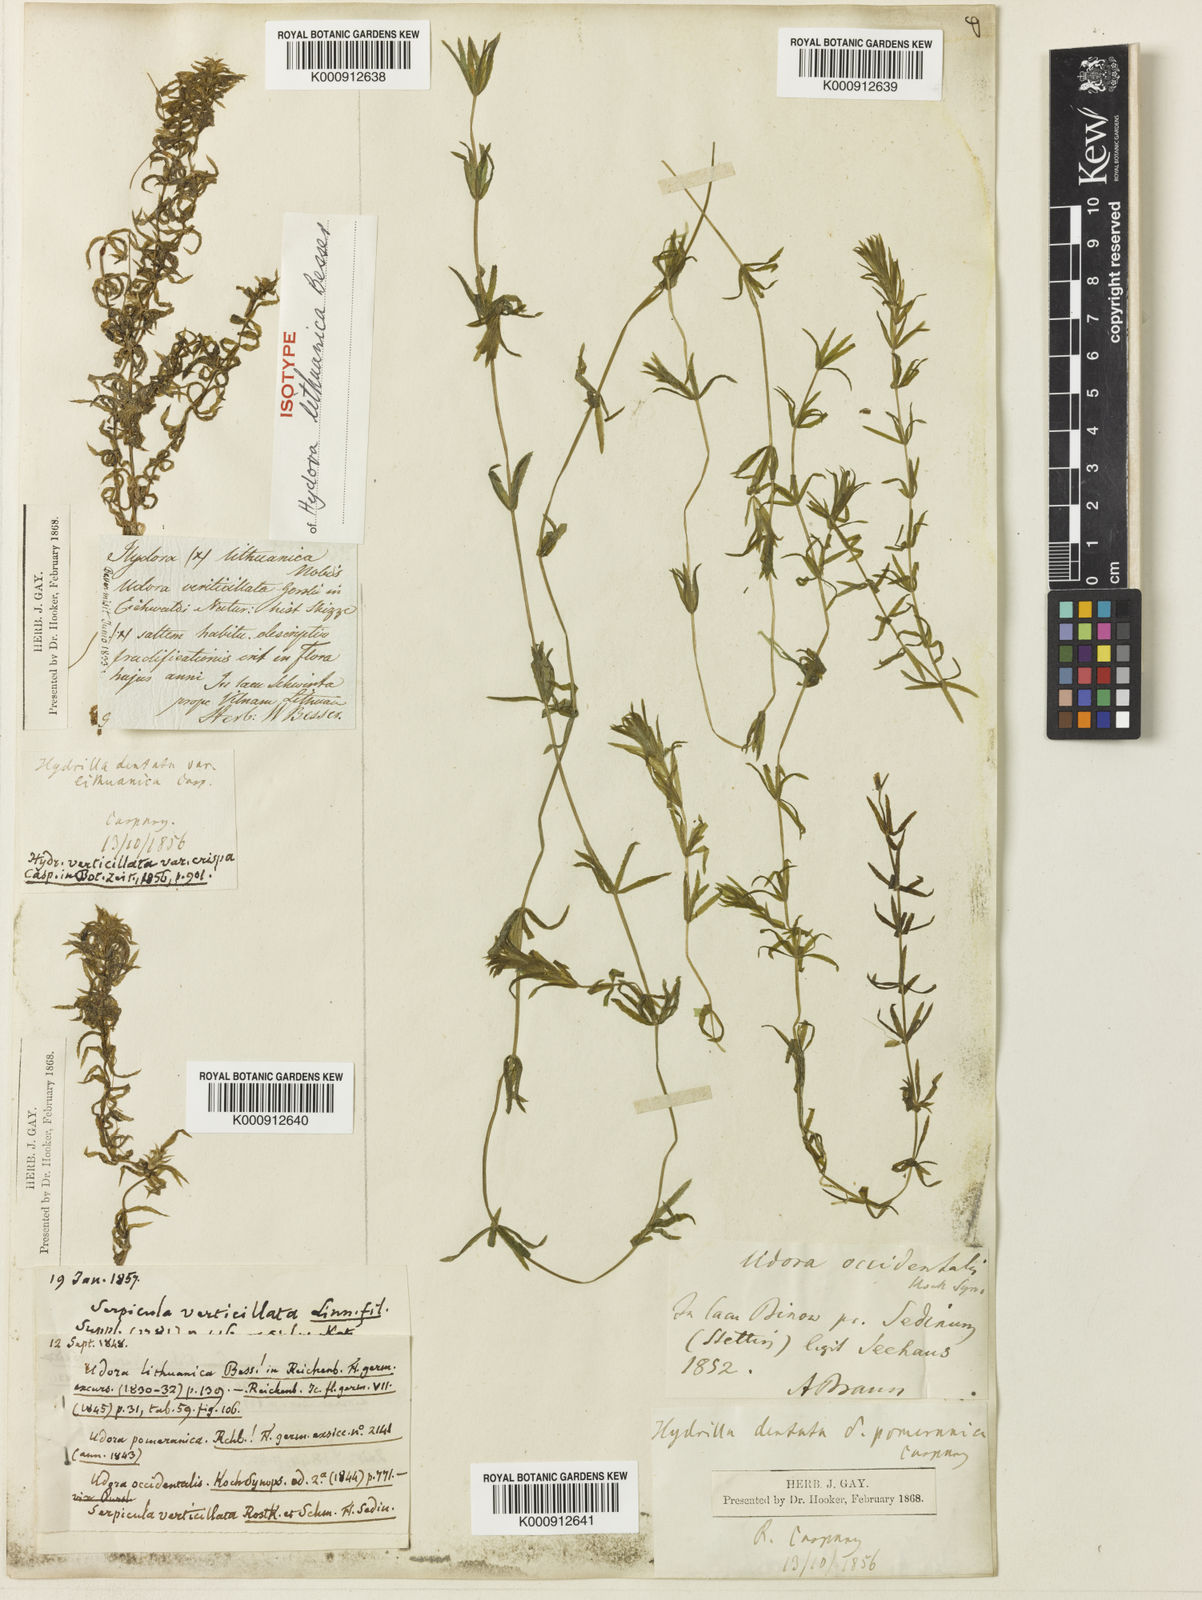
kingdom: Plantae
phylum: Tracheophyta
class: Liliopsida
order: Alismatales
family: Hydrocharitaceae
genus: Hydrilla
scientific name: Hydrilla verticillata
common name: Florida-elodea
